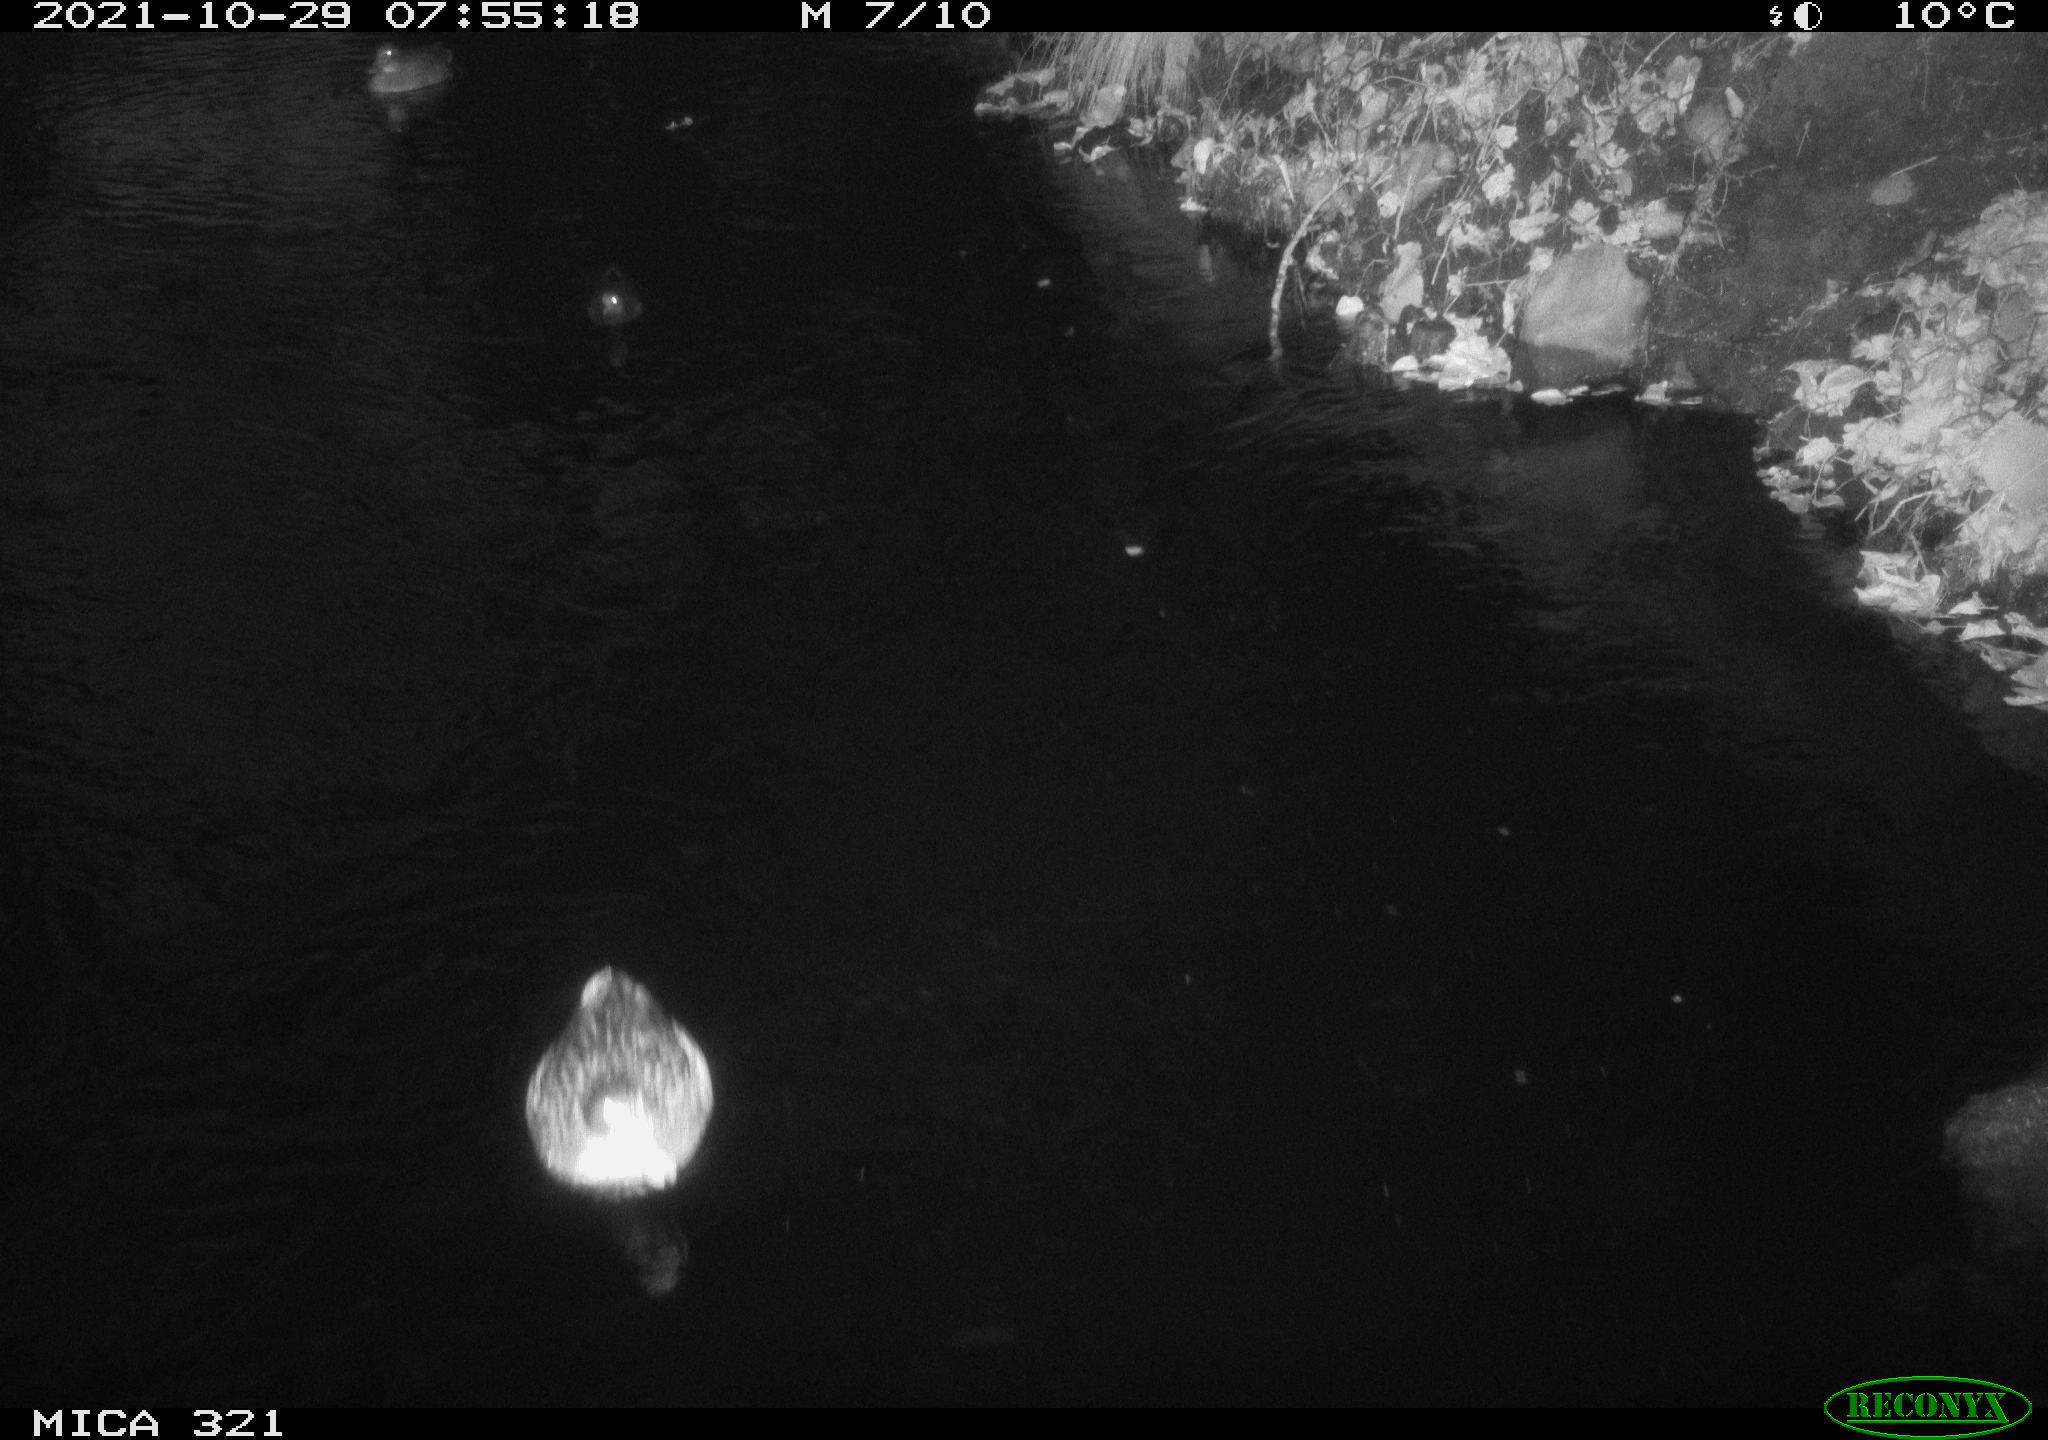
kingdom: Animalia
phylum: Chordata
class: Aves
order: Anseriformes
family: Anatidae
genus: Anas
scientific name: Anas platyrhynchos
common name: Mallard
